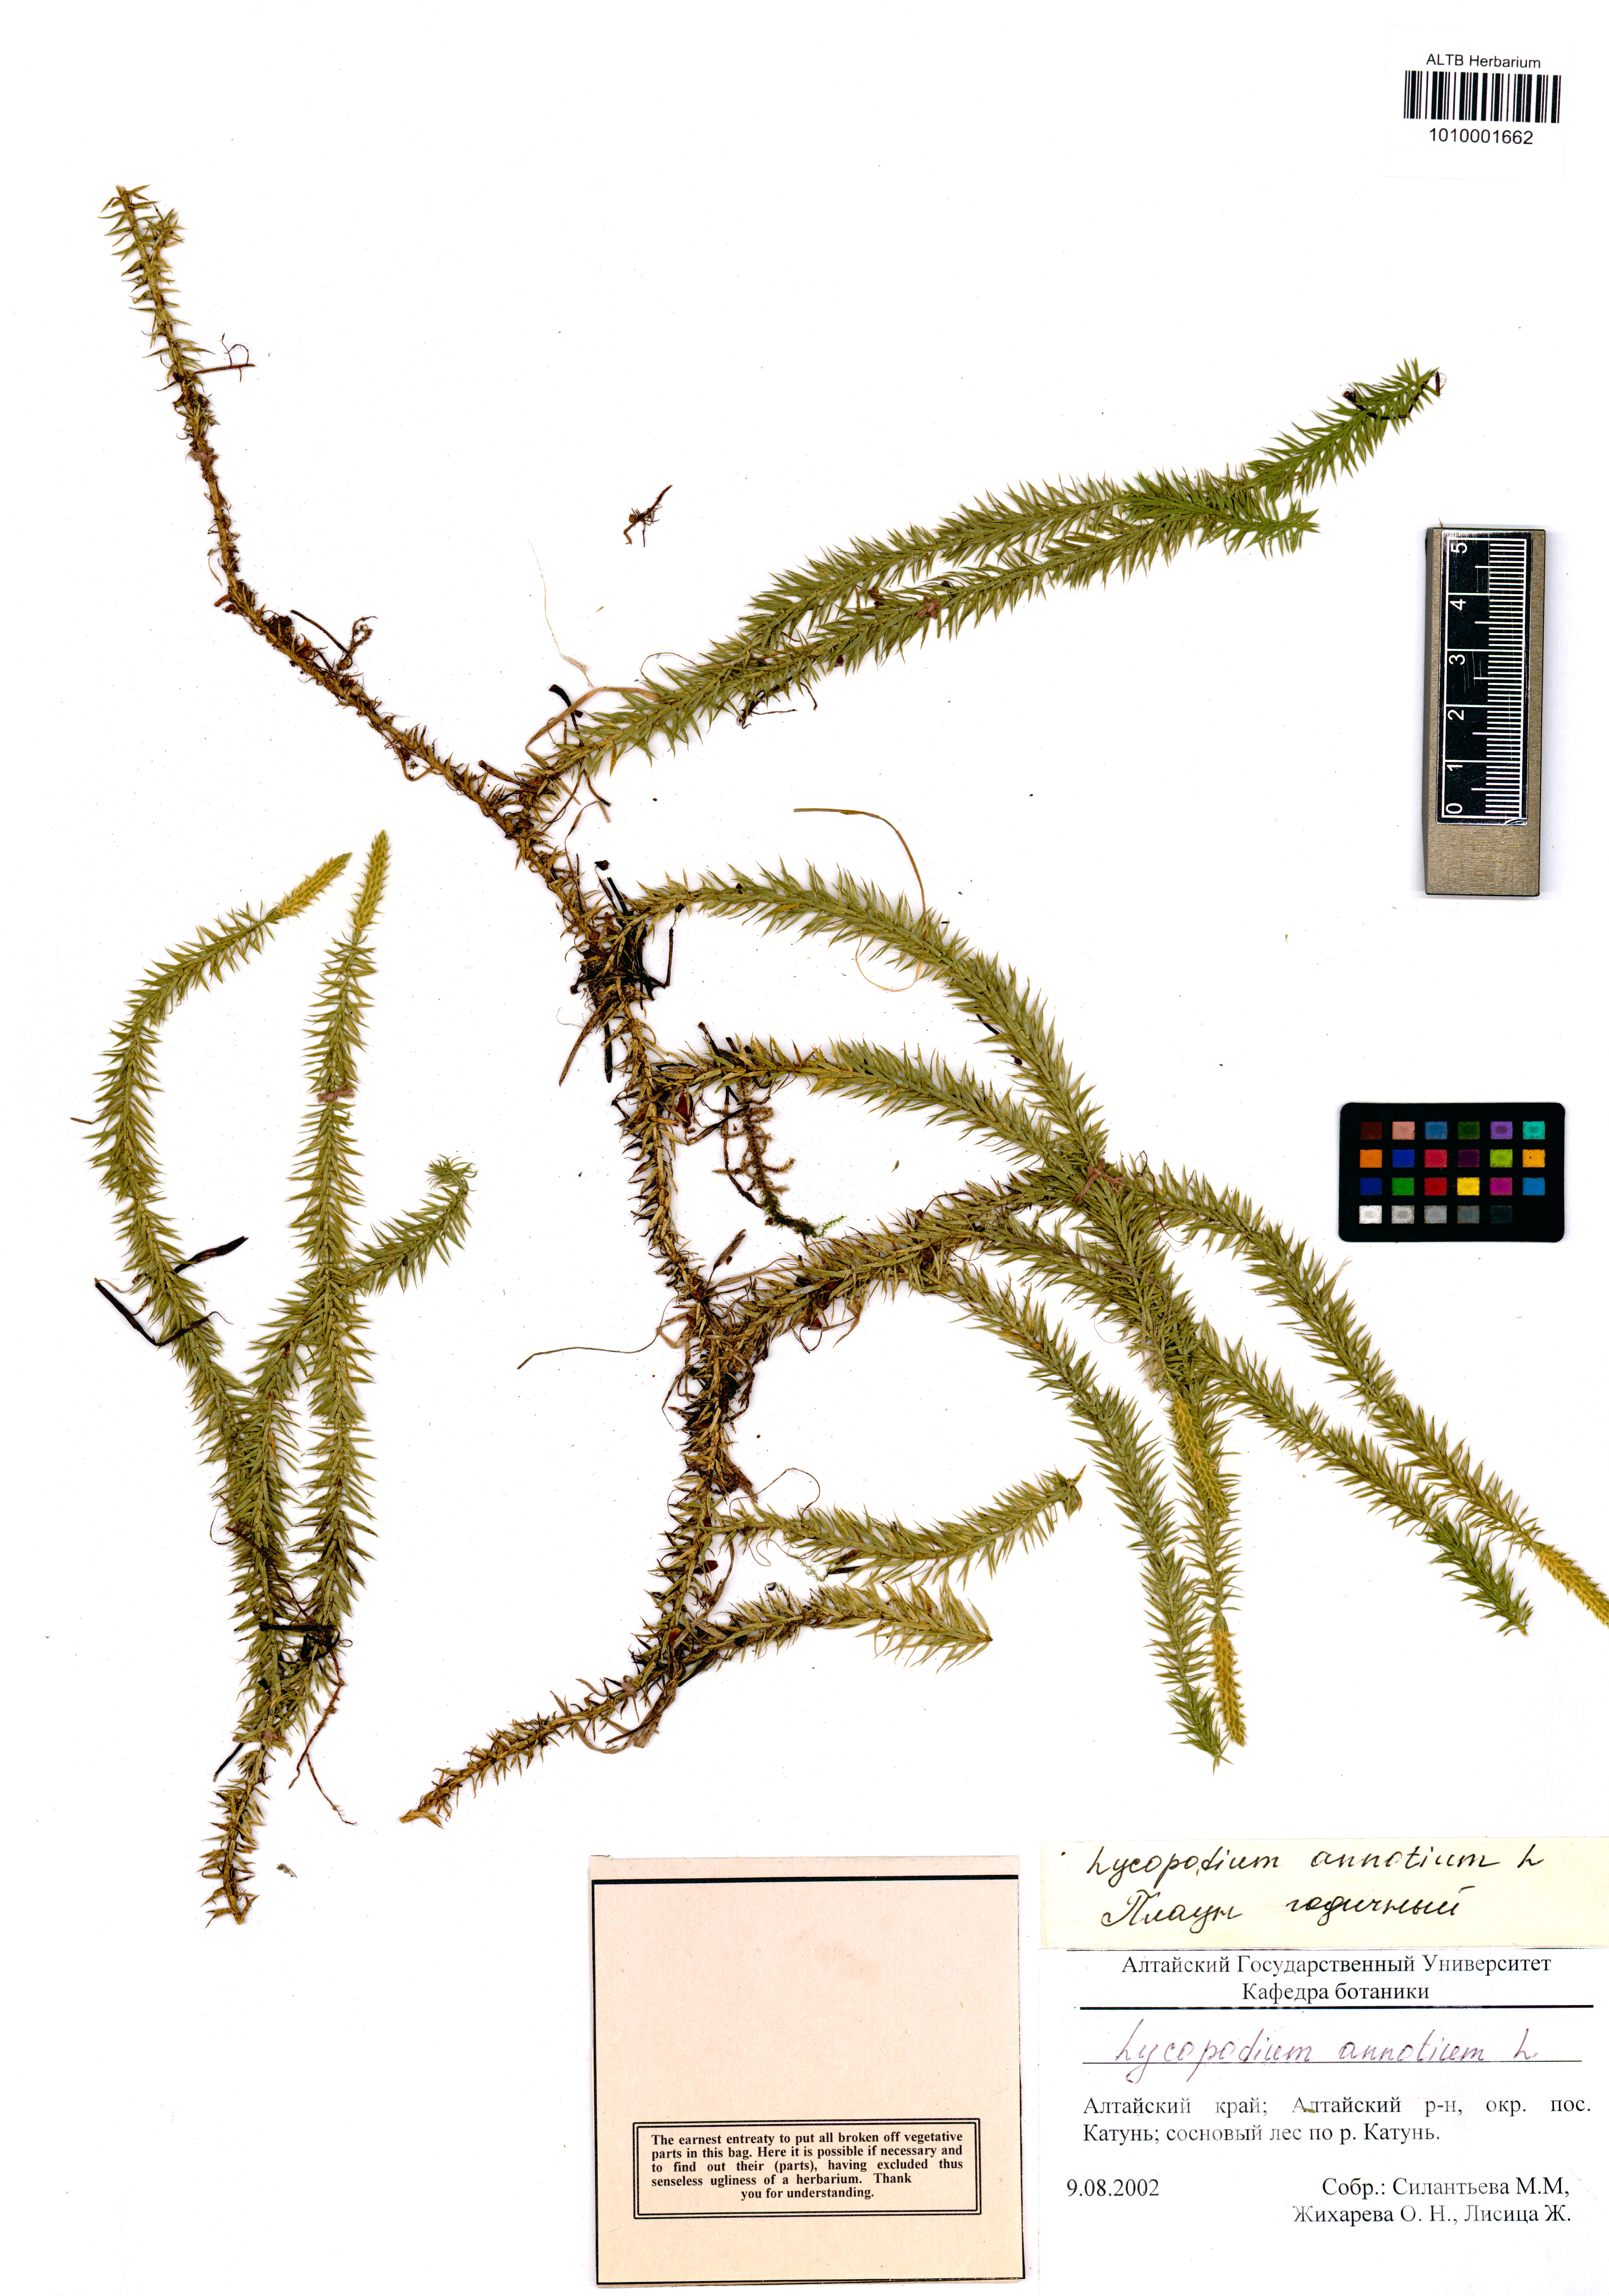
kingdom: Plantae
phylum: Tracheophyta
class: Lycopodiopsida
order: Lycopodiales
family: Lycopodiaceae
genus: Spinulum
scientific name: Spinulum annotinum
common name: Interrupted club-moss
